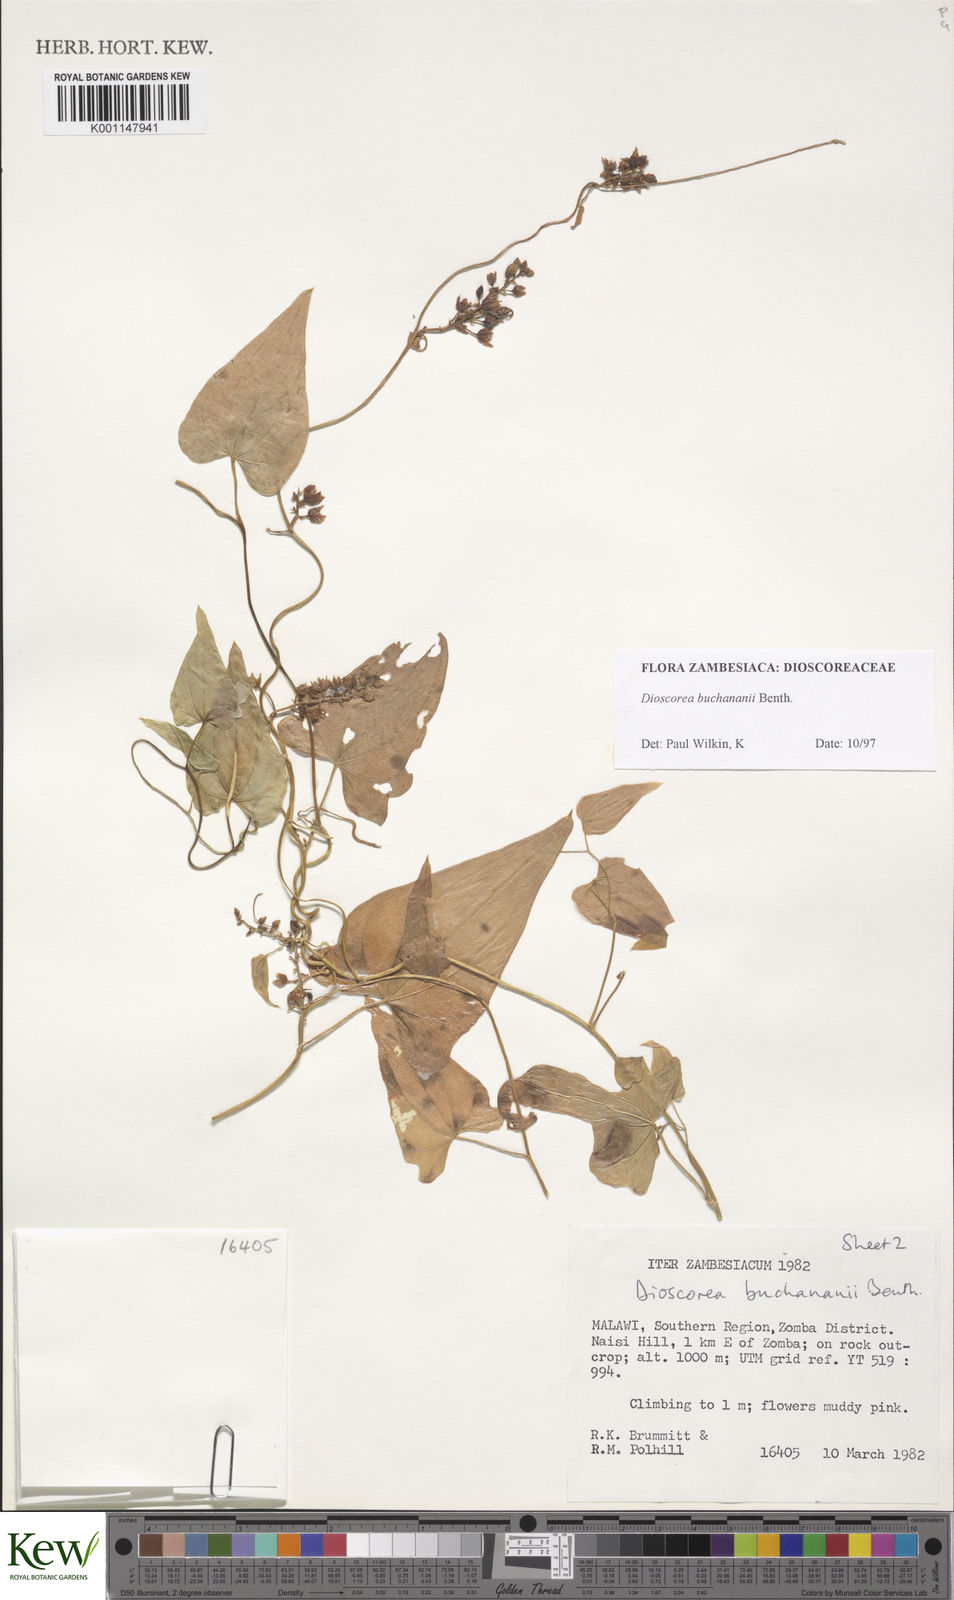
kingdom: Plantae
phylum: Tracheophyta
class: Liliopsida
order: Dioscoreales
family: Dioscoreaceae
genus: Dioscorea
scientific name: Dioscorea buchananii
